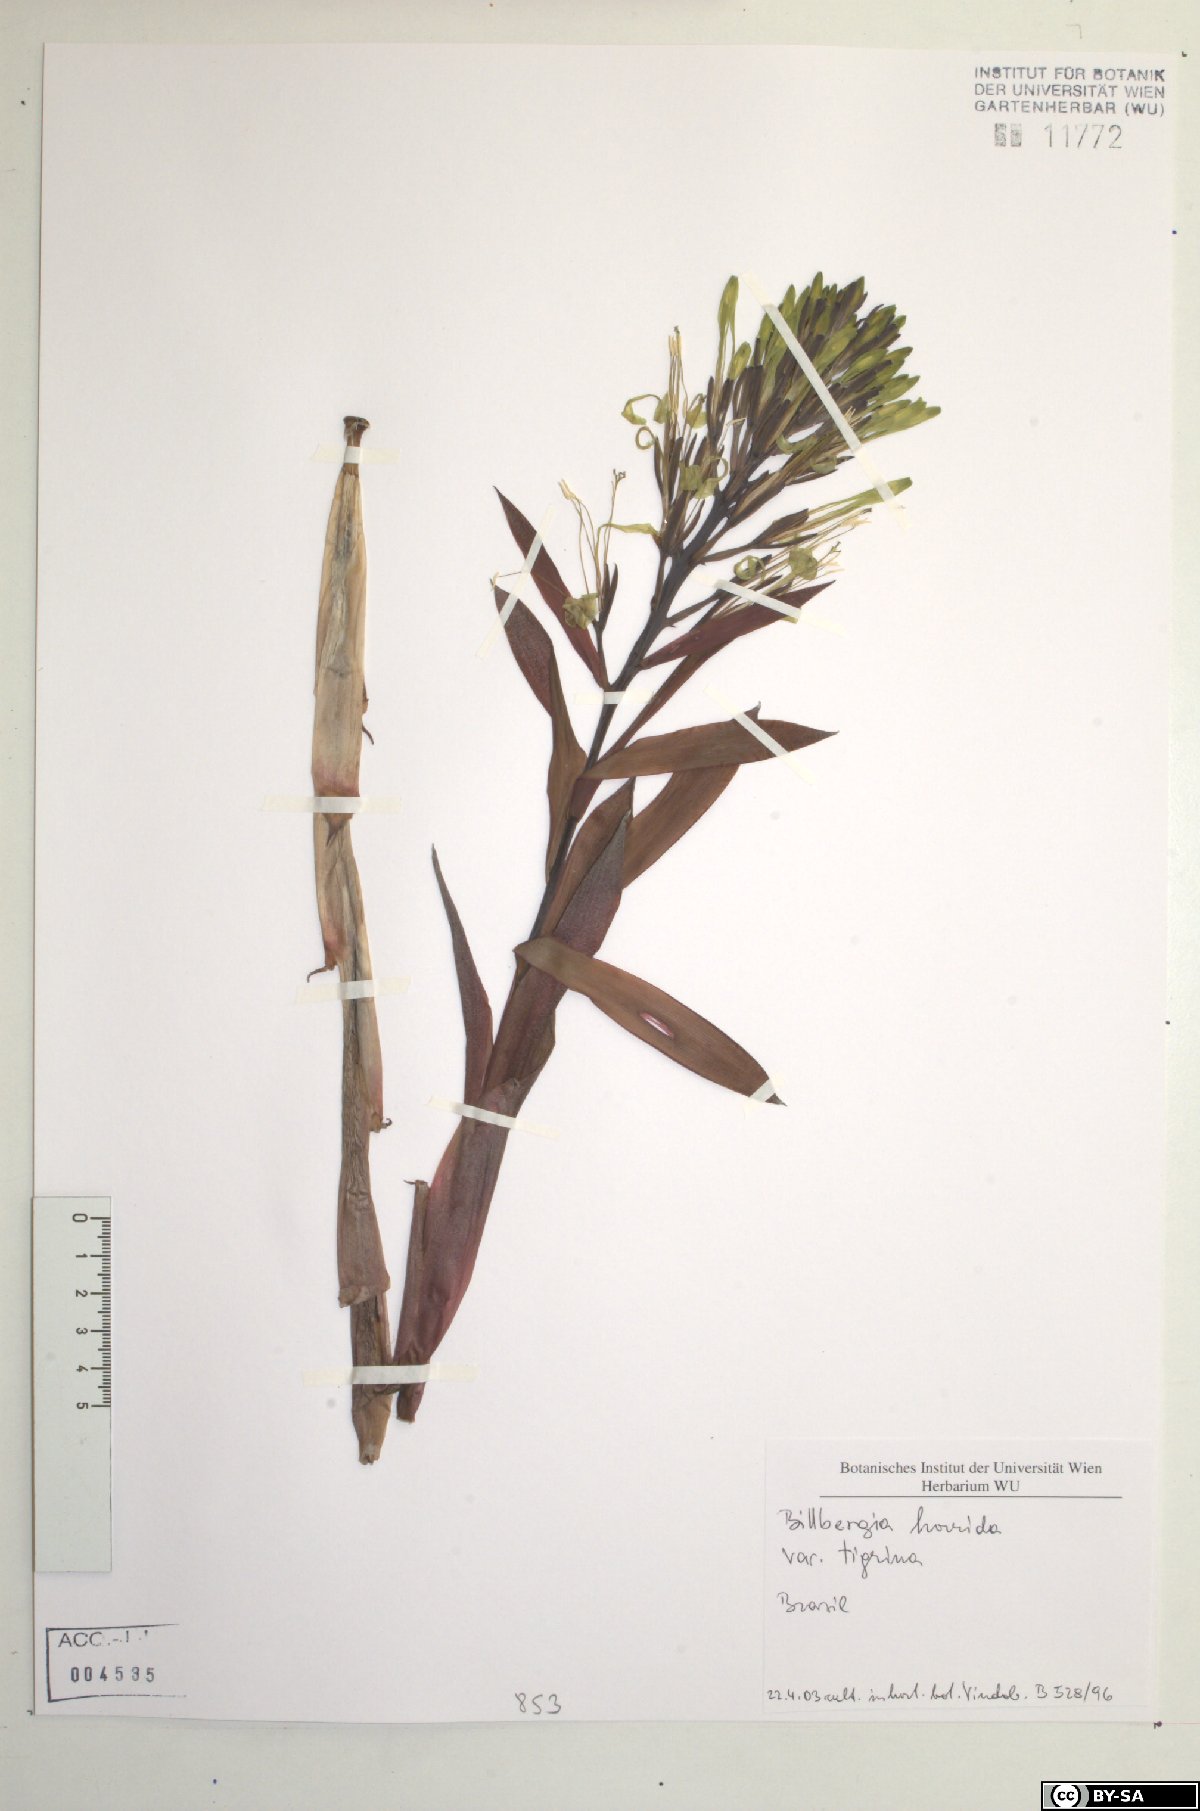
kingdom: Plantae
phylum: Tracheophyta
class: Liliopsida
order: Poales
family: Bromeliaceae
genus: Billbergia
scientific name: Billbergia horrida
